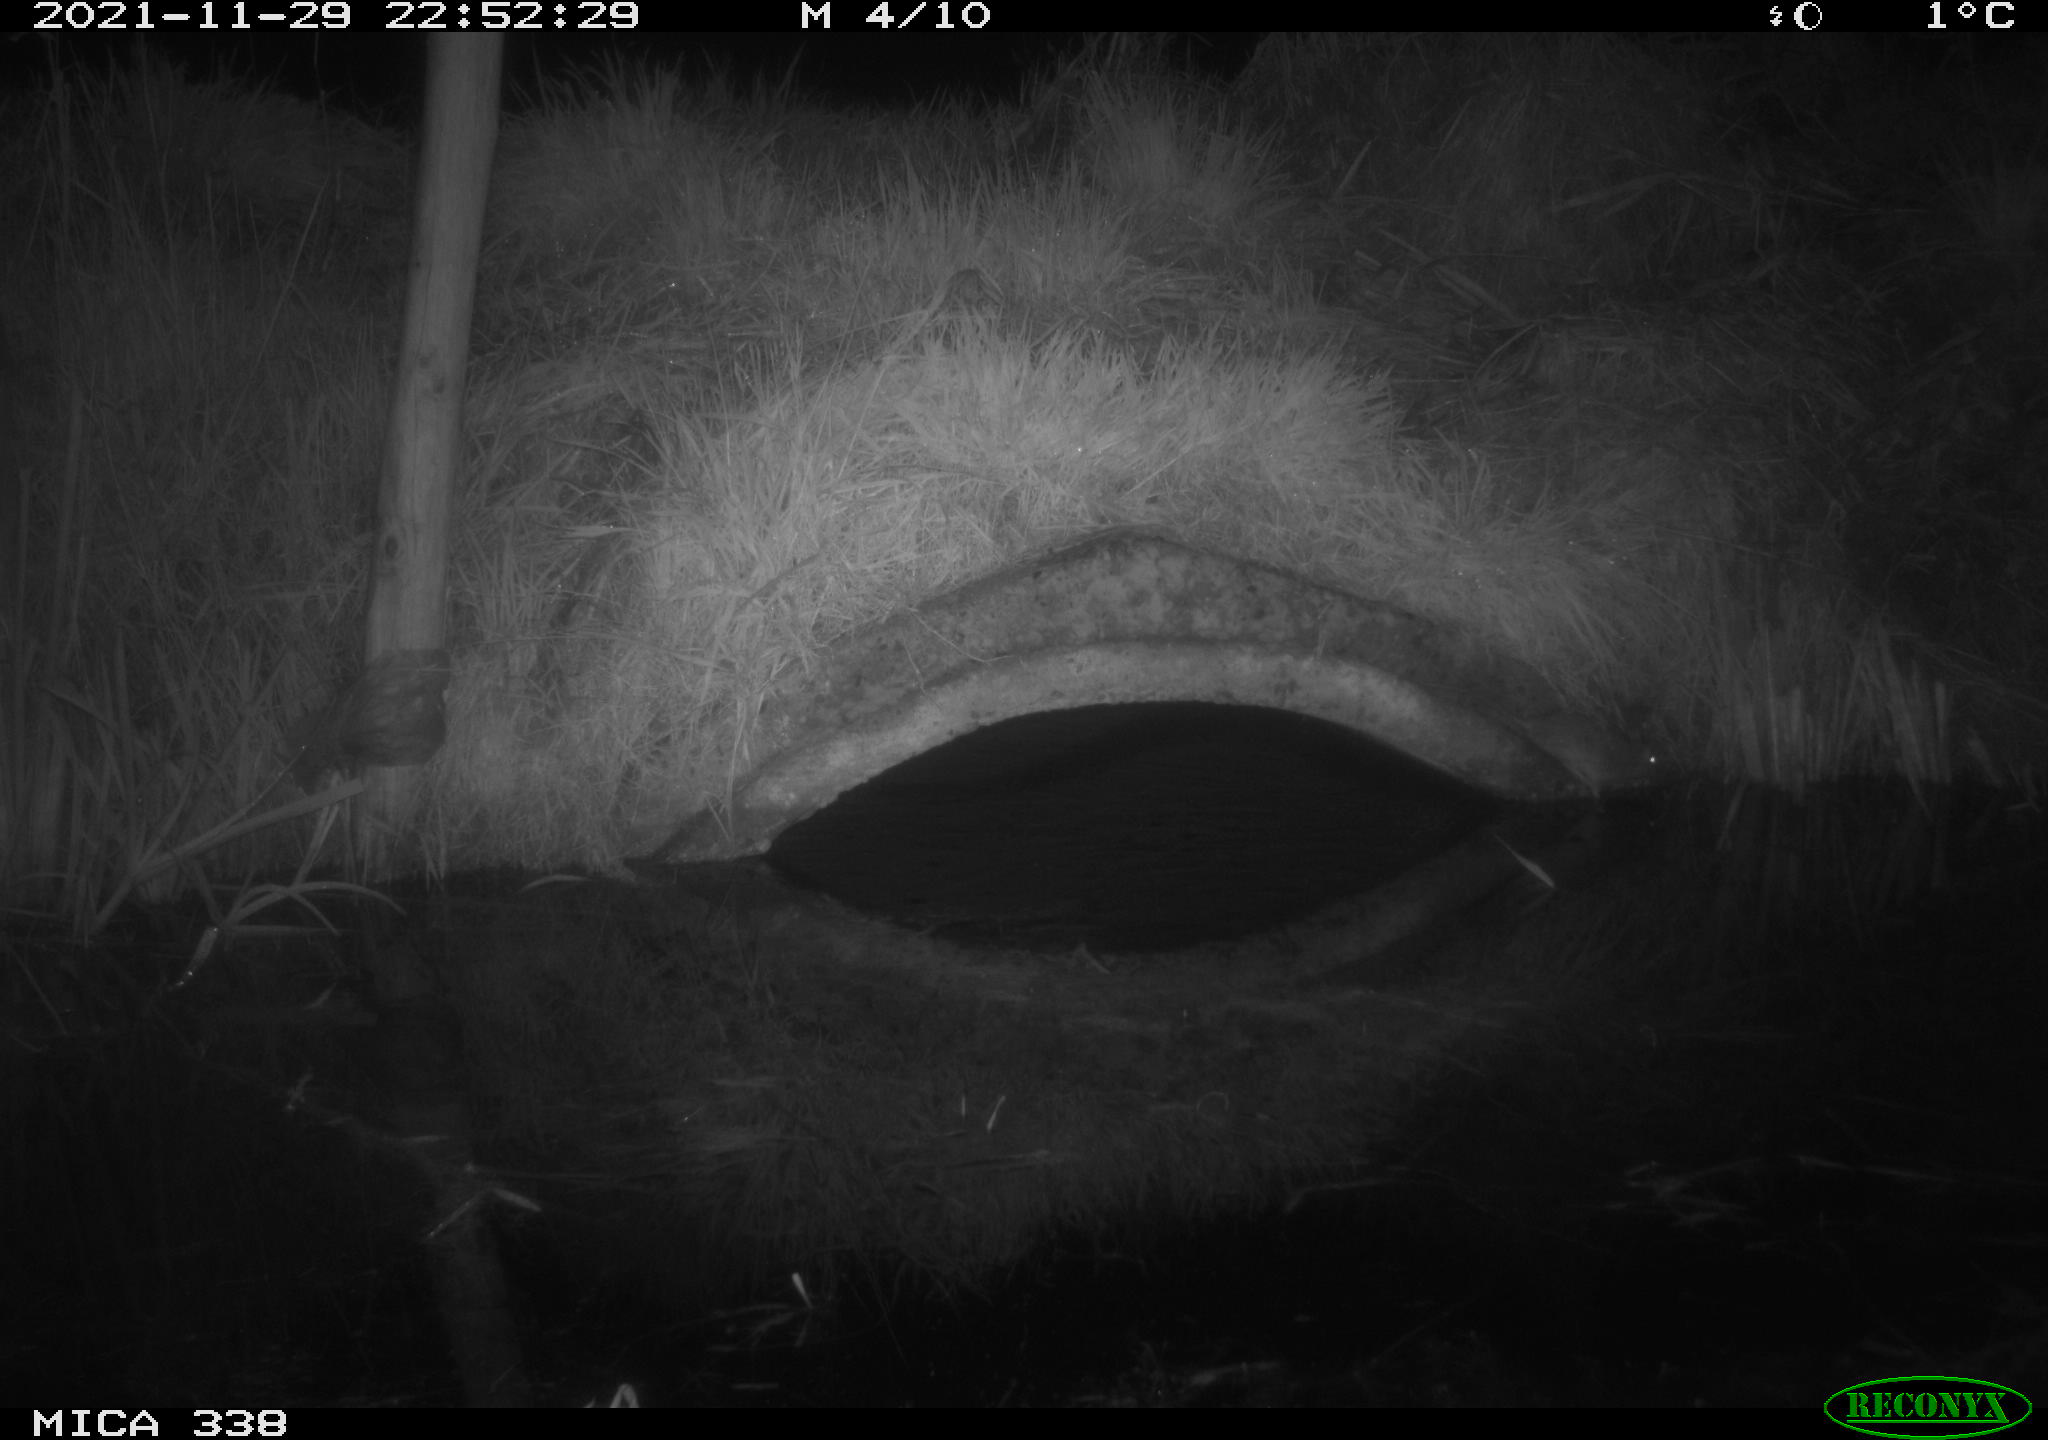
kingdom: Animalia
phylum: Chordata
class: Mammalia
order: Rodentia
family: Muridae
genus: Rattus
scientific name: Rattus norvegicus
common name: Brown rat
